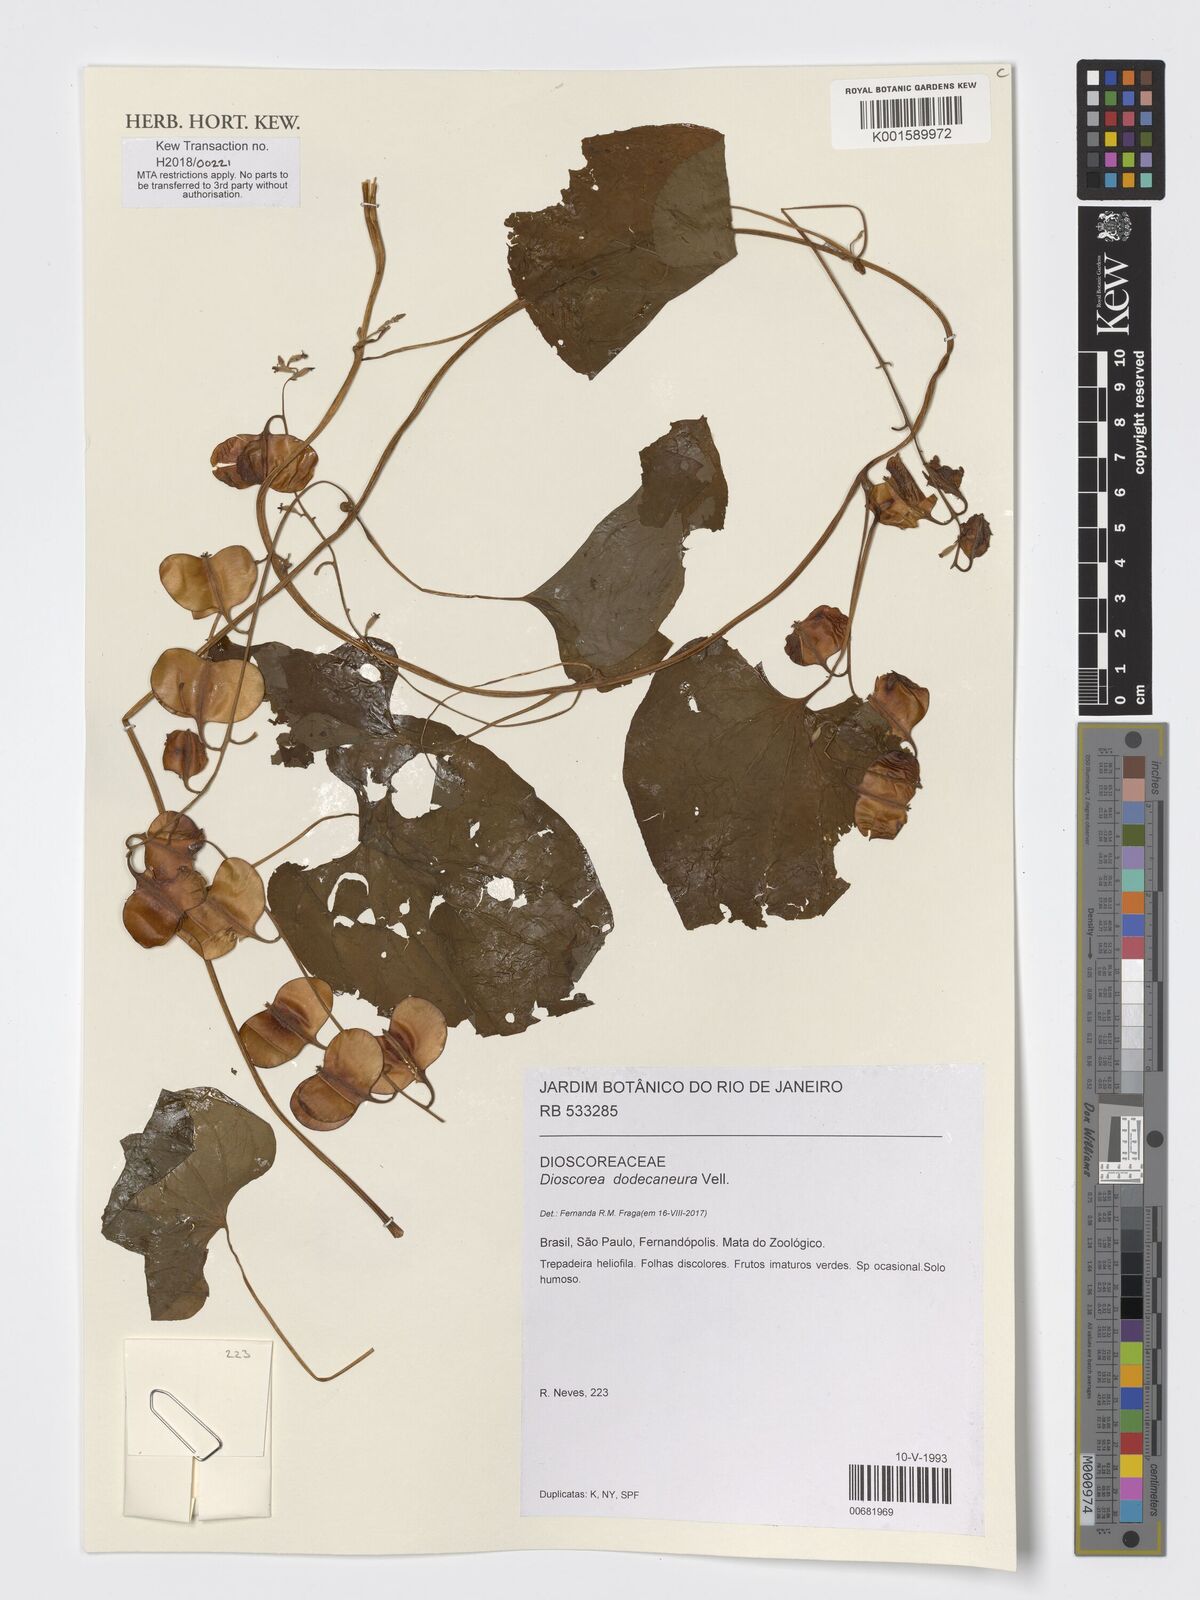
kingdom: Plantae
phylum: Tracheophyta
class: Liliopsida
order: Dioscoreales
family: Dioscoreaceae
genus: Dioscorea
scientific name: Dioscorea dodecaneura
